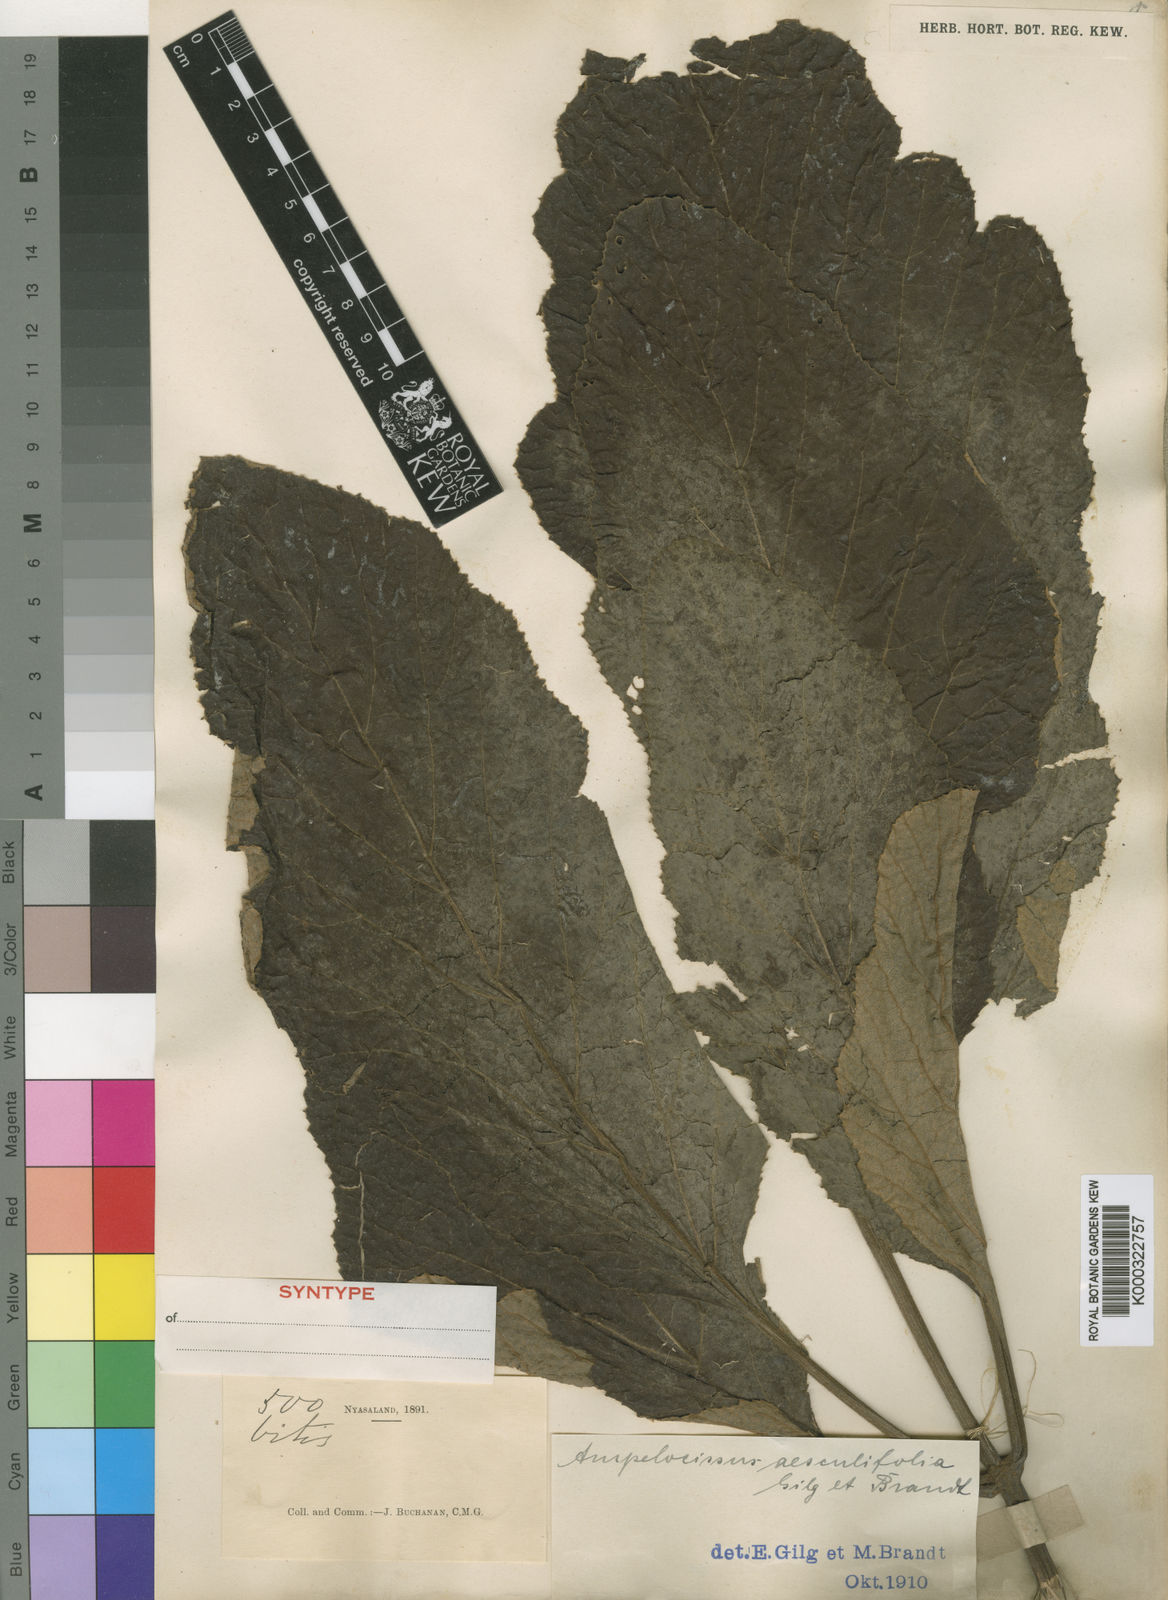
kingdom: Plantae
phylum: Tracheophyta
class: Magnoliopsida
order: Vitales
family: Vitaceae
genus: Ampelocissus
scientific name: Ampelocissus obtusata
